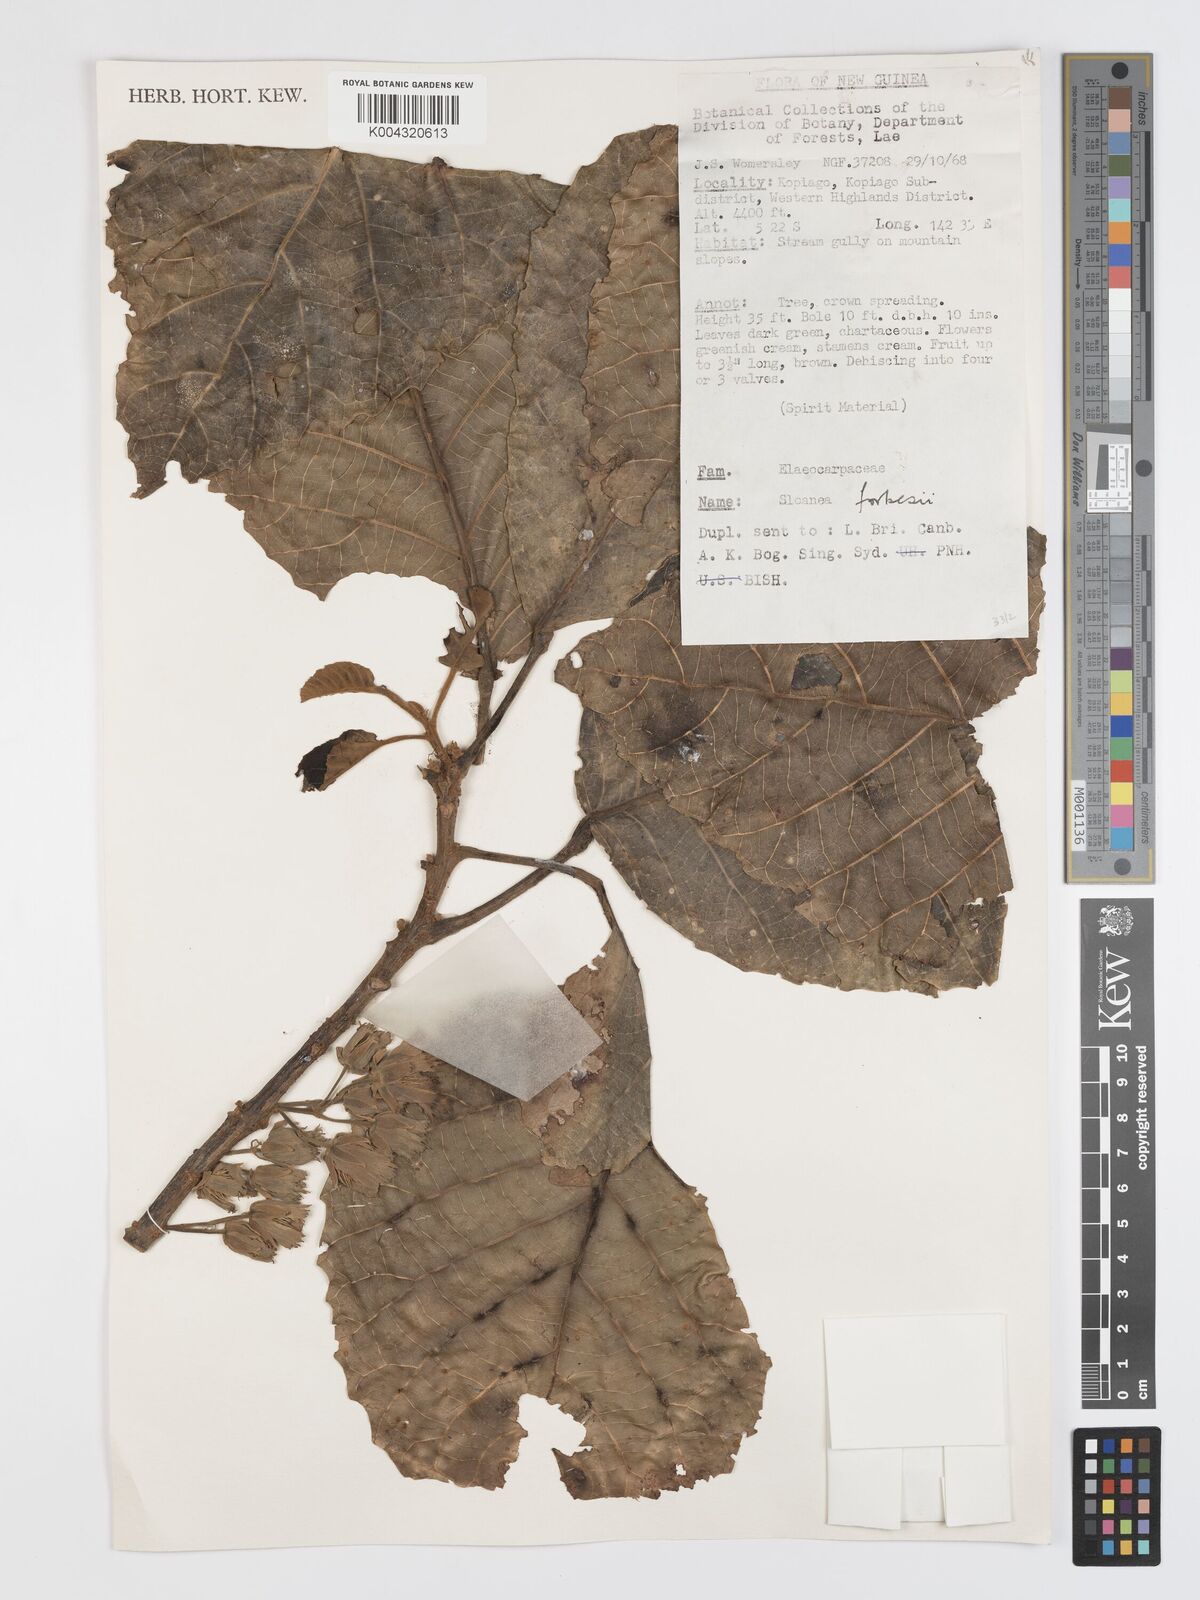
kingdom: Plantae
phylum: Tracheophyta
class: Magnoliopsida
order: Oxalidales
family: Elaeocarpaceae
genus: Sloanea
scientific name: Sloanea forbesii
